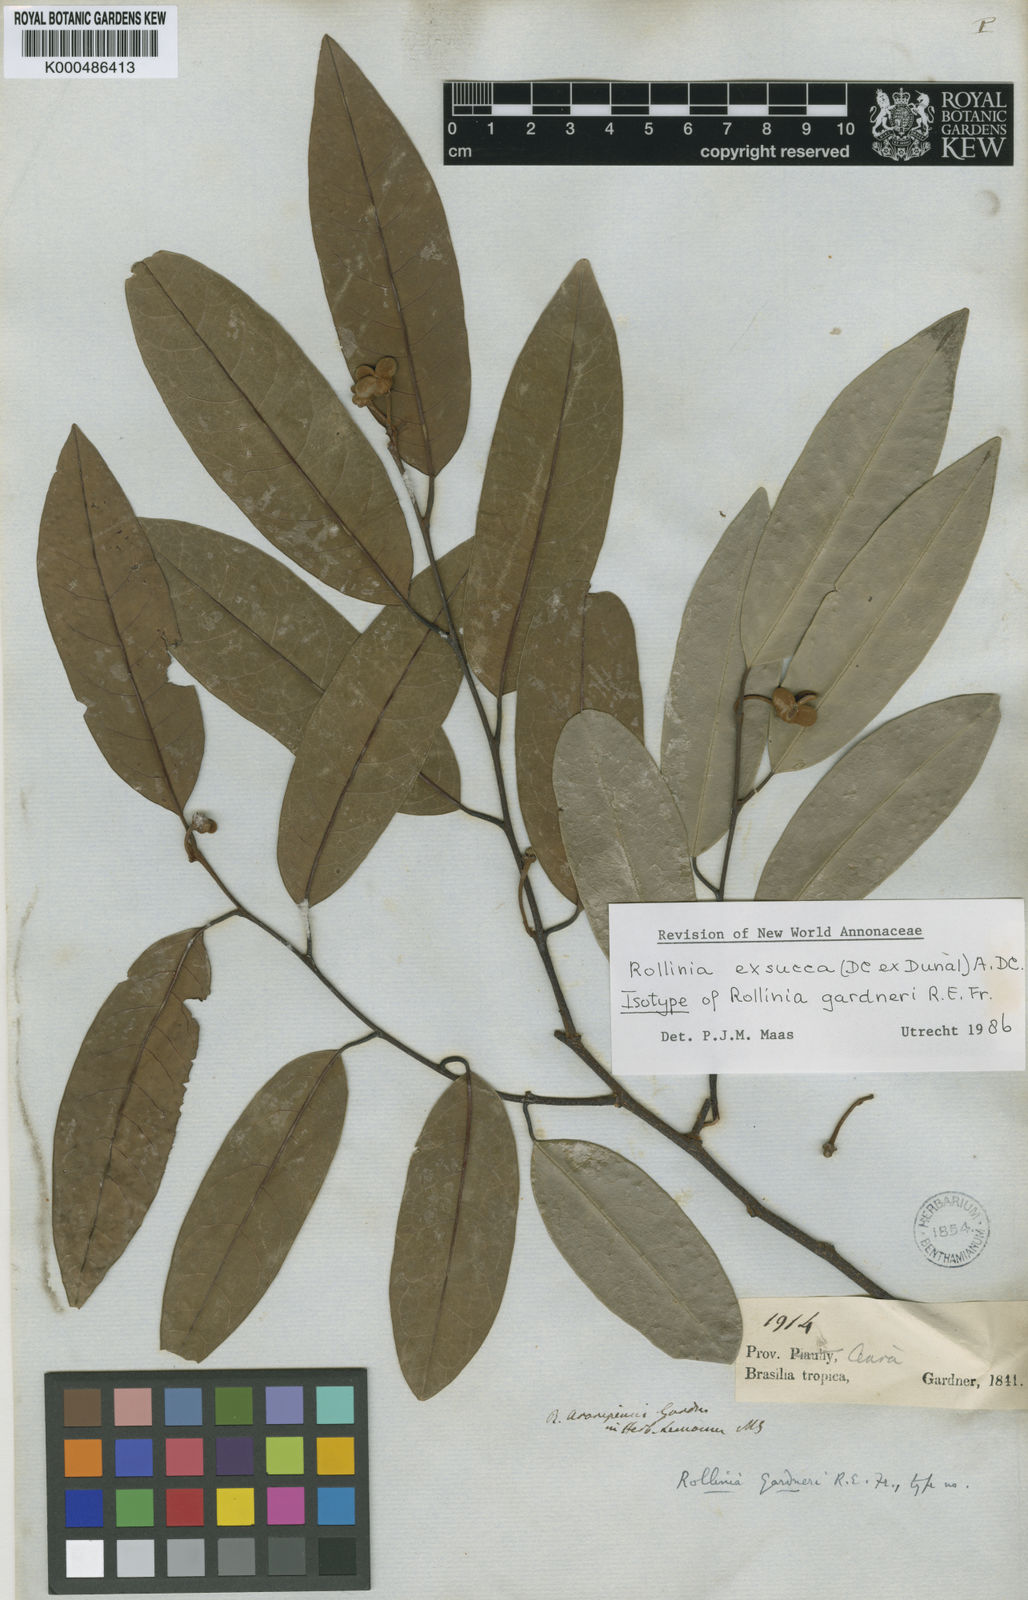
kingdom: Plantae
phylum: Tracheophyta
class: Magnoliopsida
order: Magnoliales
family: Annonaceae
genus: Annona
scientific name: Annona
